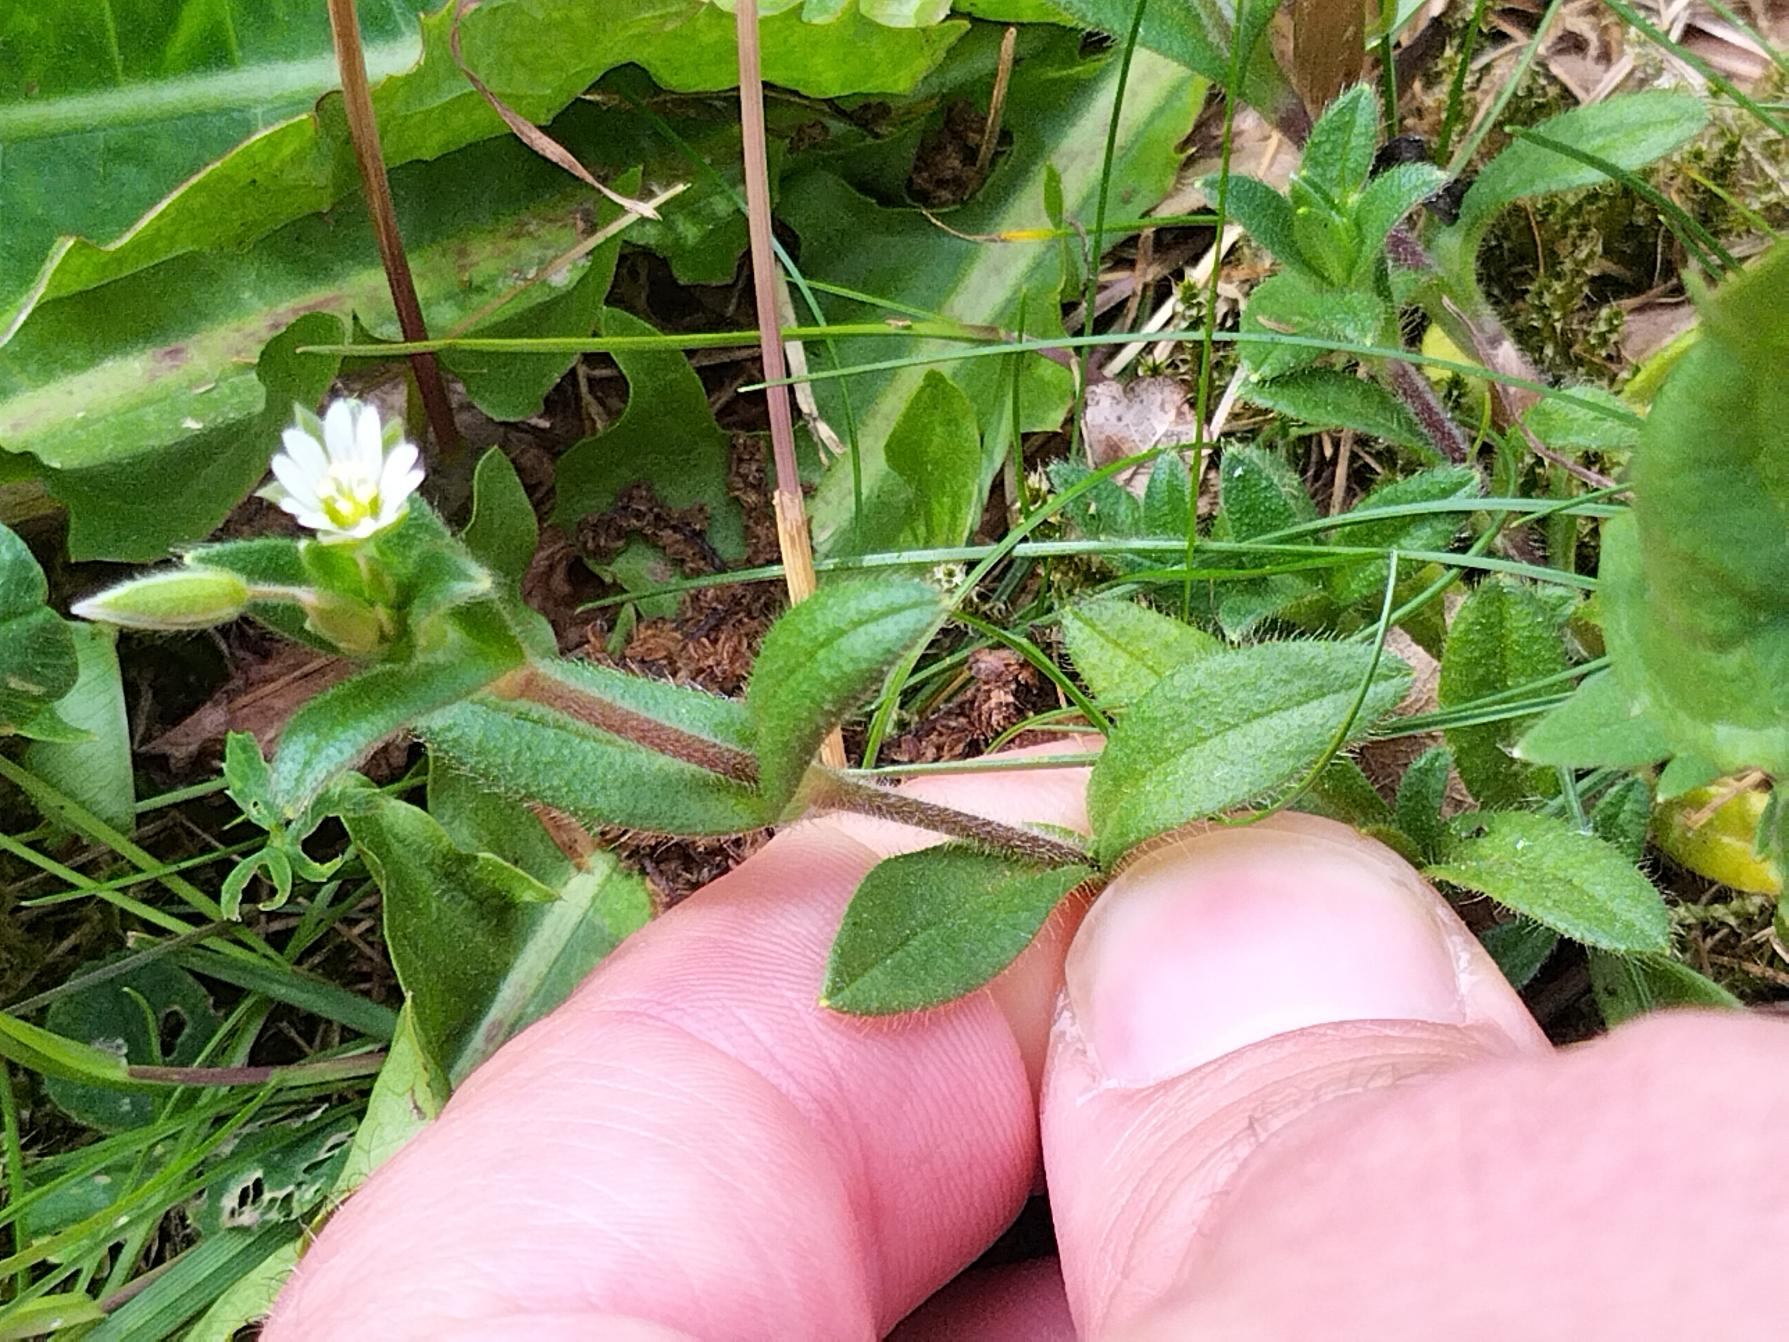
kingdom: Plantae
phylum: Tracheophyta
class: Magnoliopsida
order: Caryophyllales
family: Caryophyllaceae
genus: Cerastium
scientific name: Cerastium fontanum
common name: Almindelig hønsetarm
